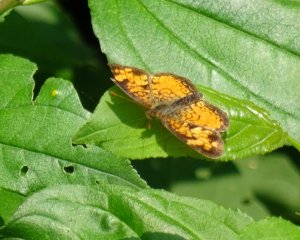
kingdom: Animalia
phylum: Arthropoda
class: Insecta
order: Lepidoptera
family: Nymphalidae
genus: Phyciodes
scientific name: Phyciodes tharos
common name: Northern Crescent
